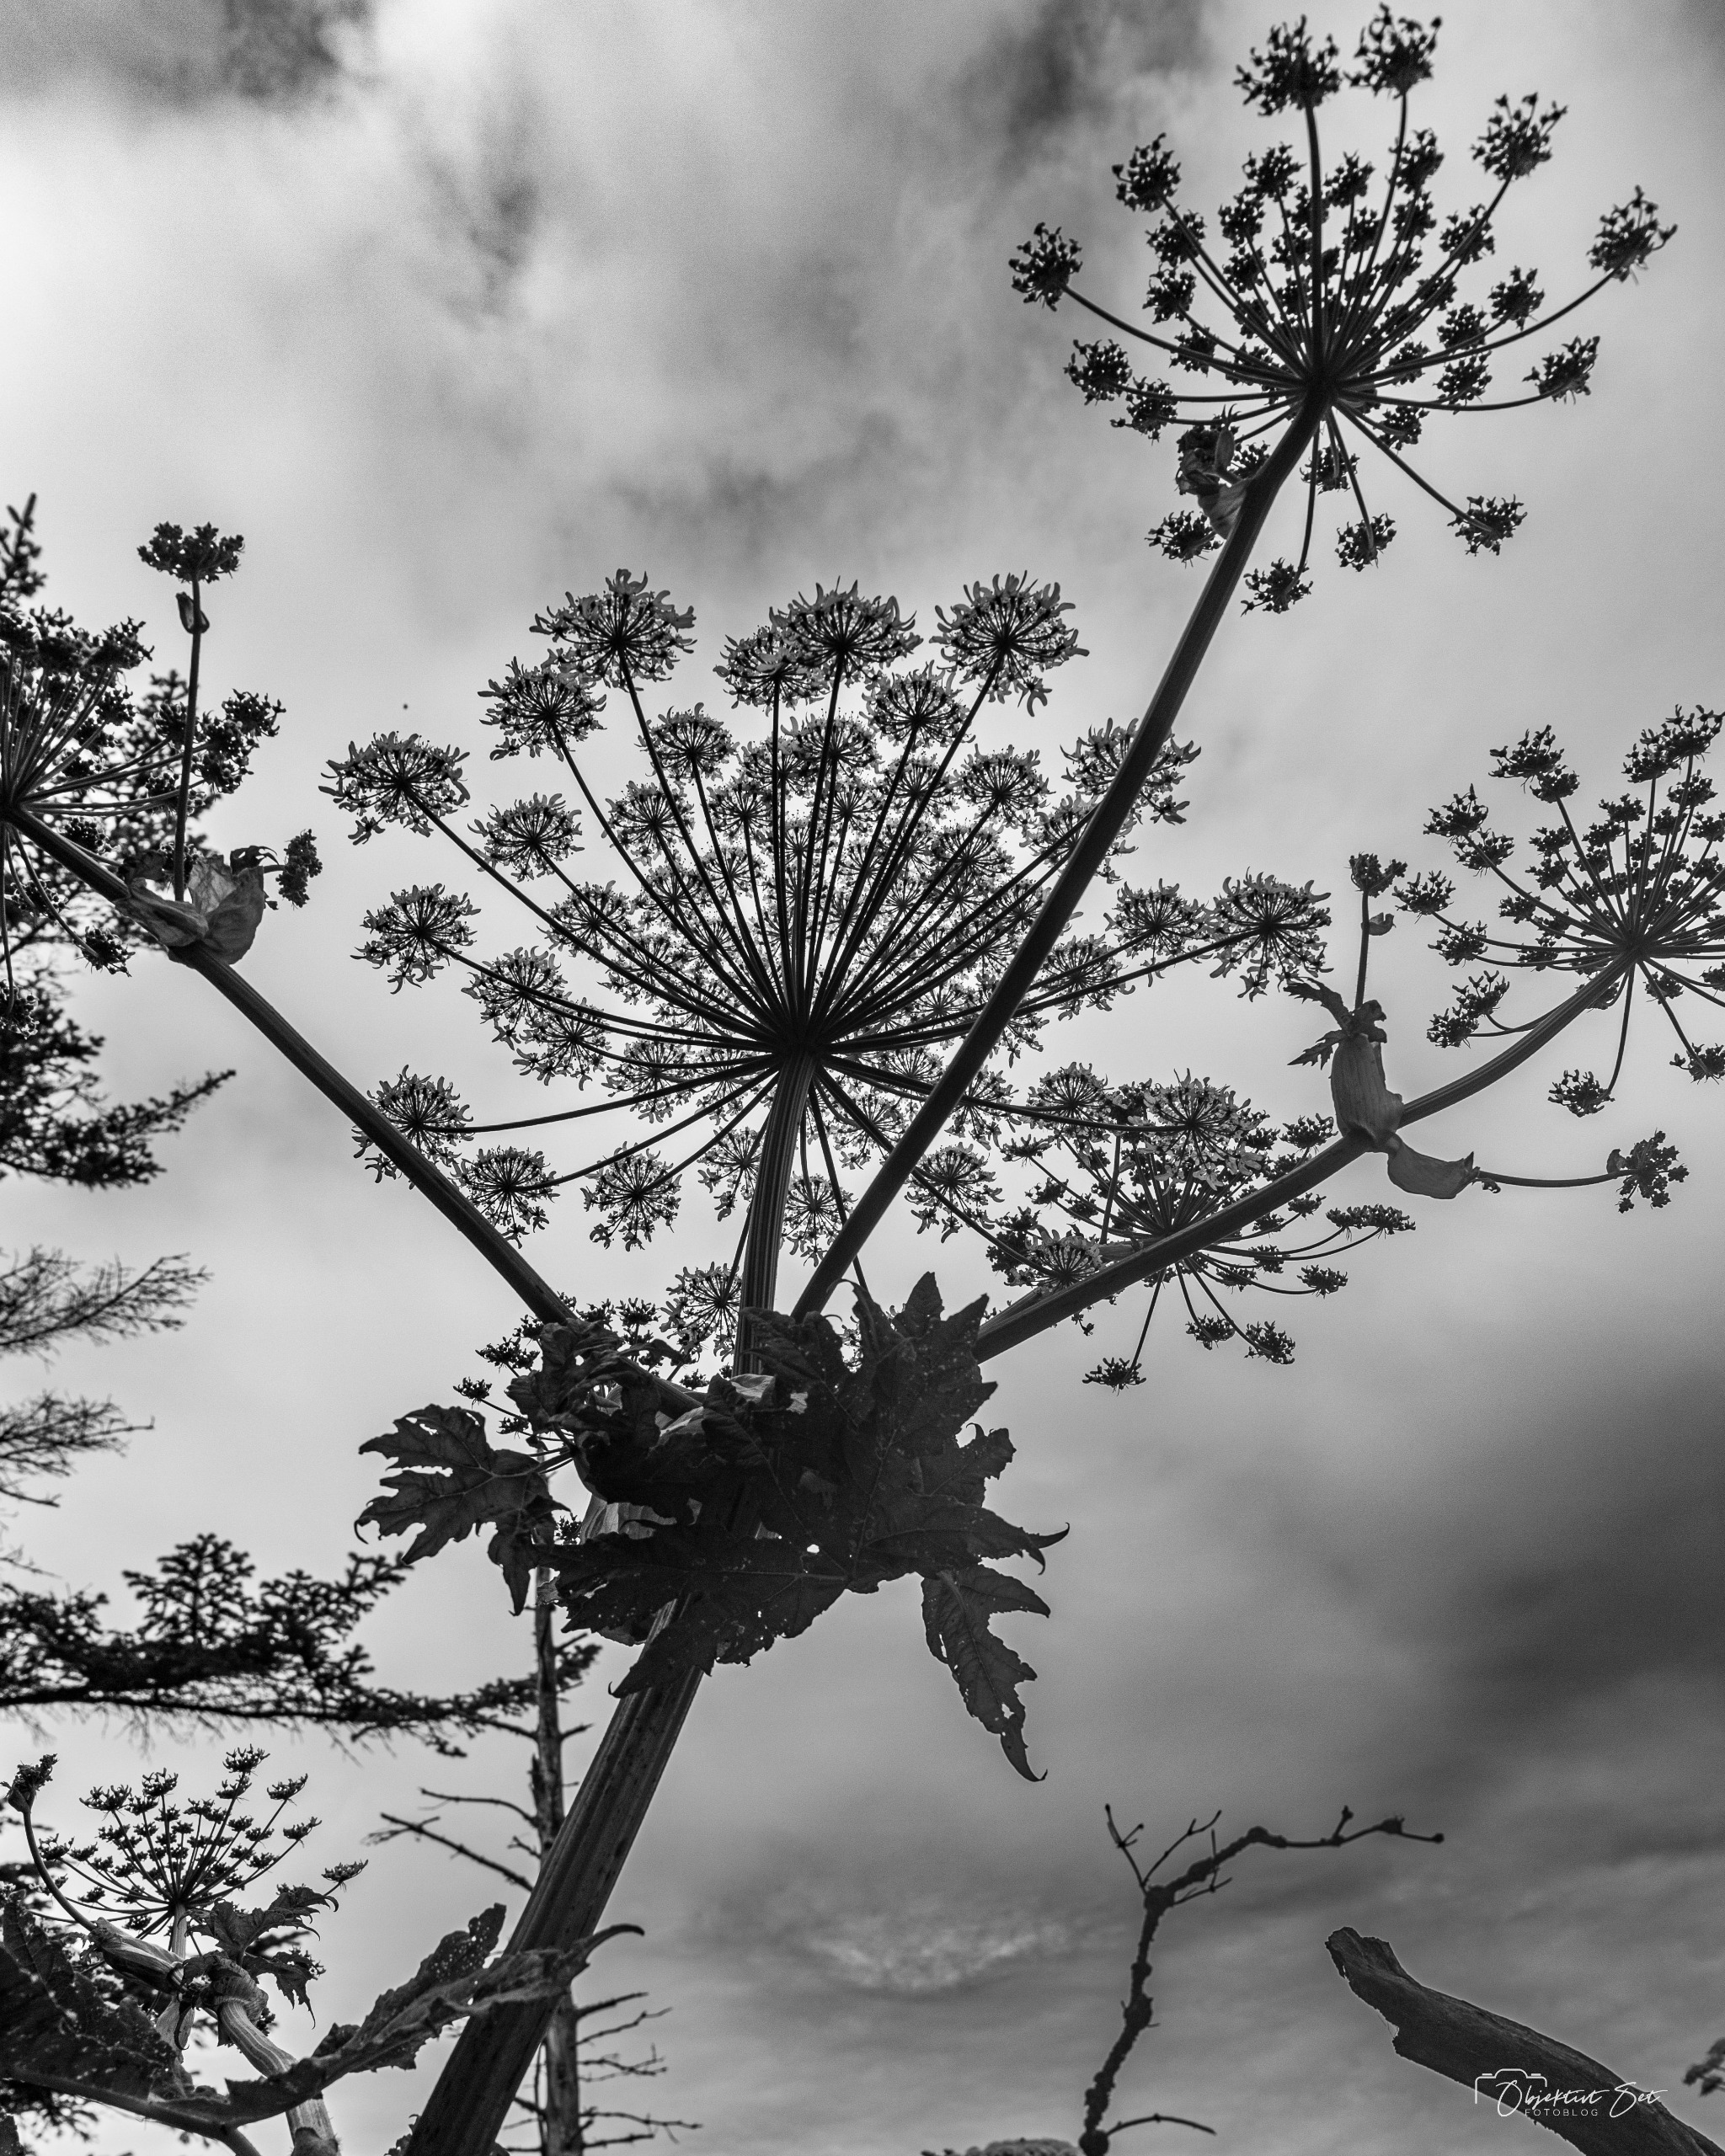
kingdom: Plantae
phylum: Tracheophyta
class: Magnoliopsida
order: Apiales
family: Apiaceae
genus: Heracleum
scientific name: Heracleum mantegazzianum
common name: Kæmpe-bjørneklo
